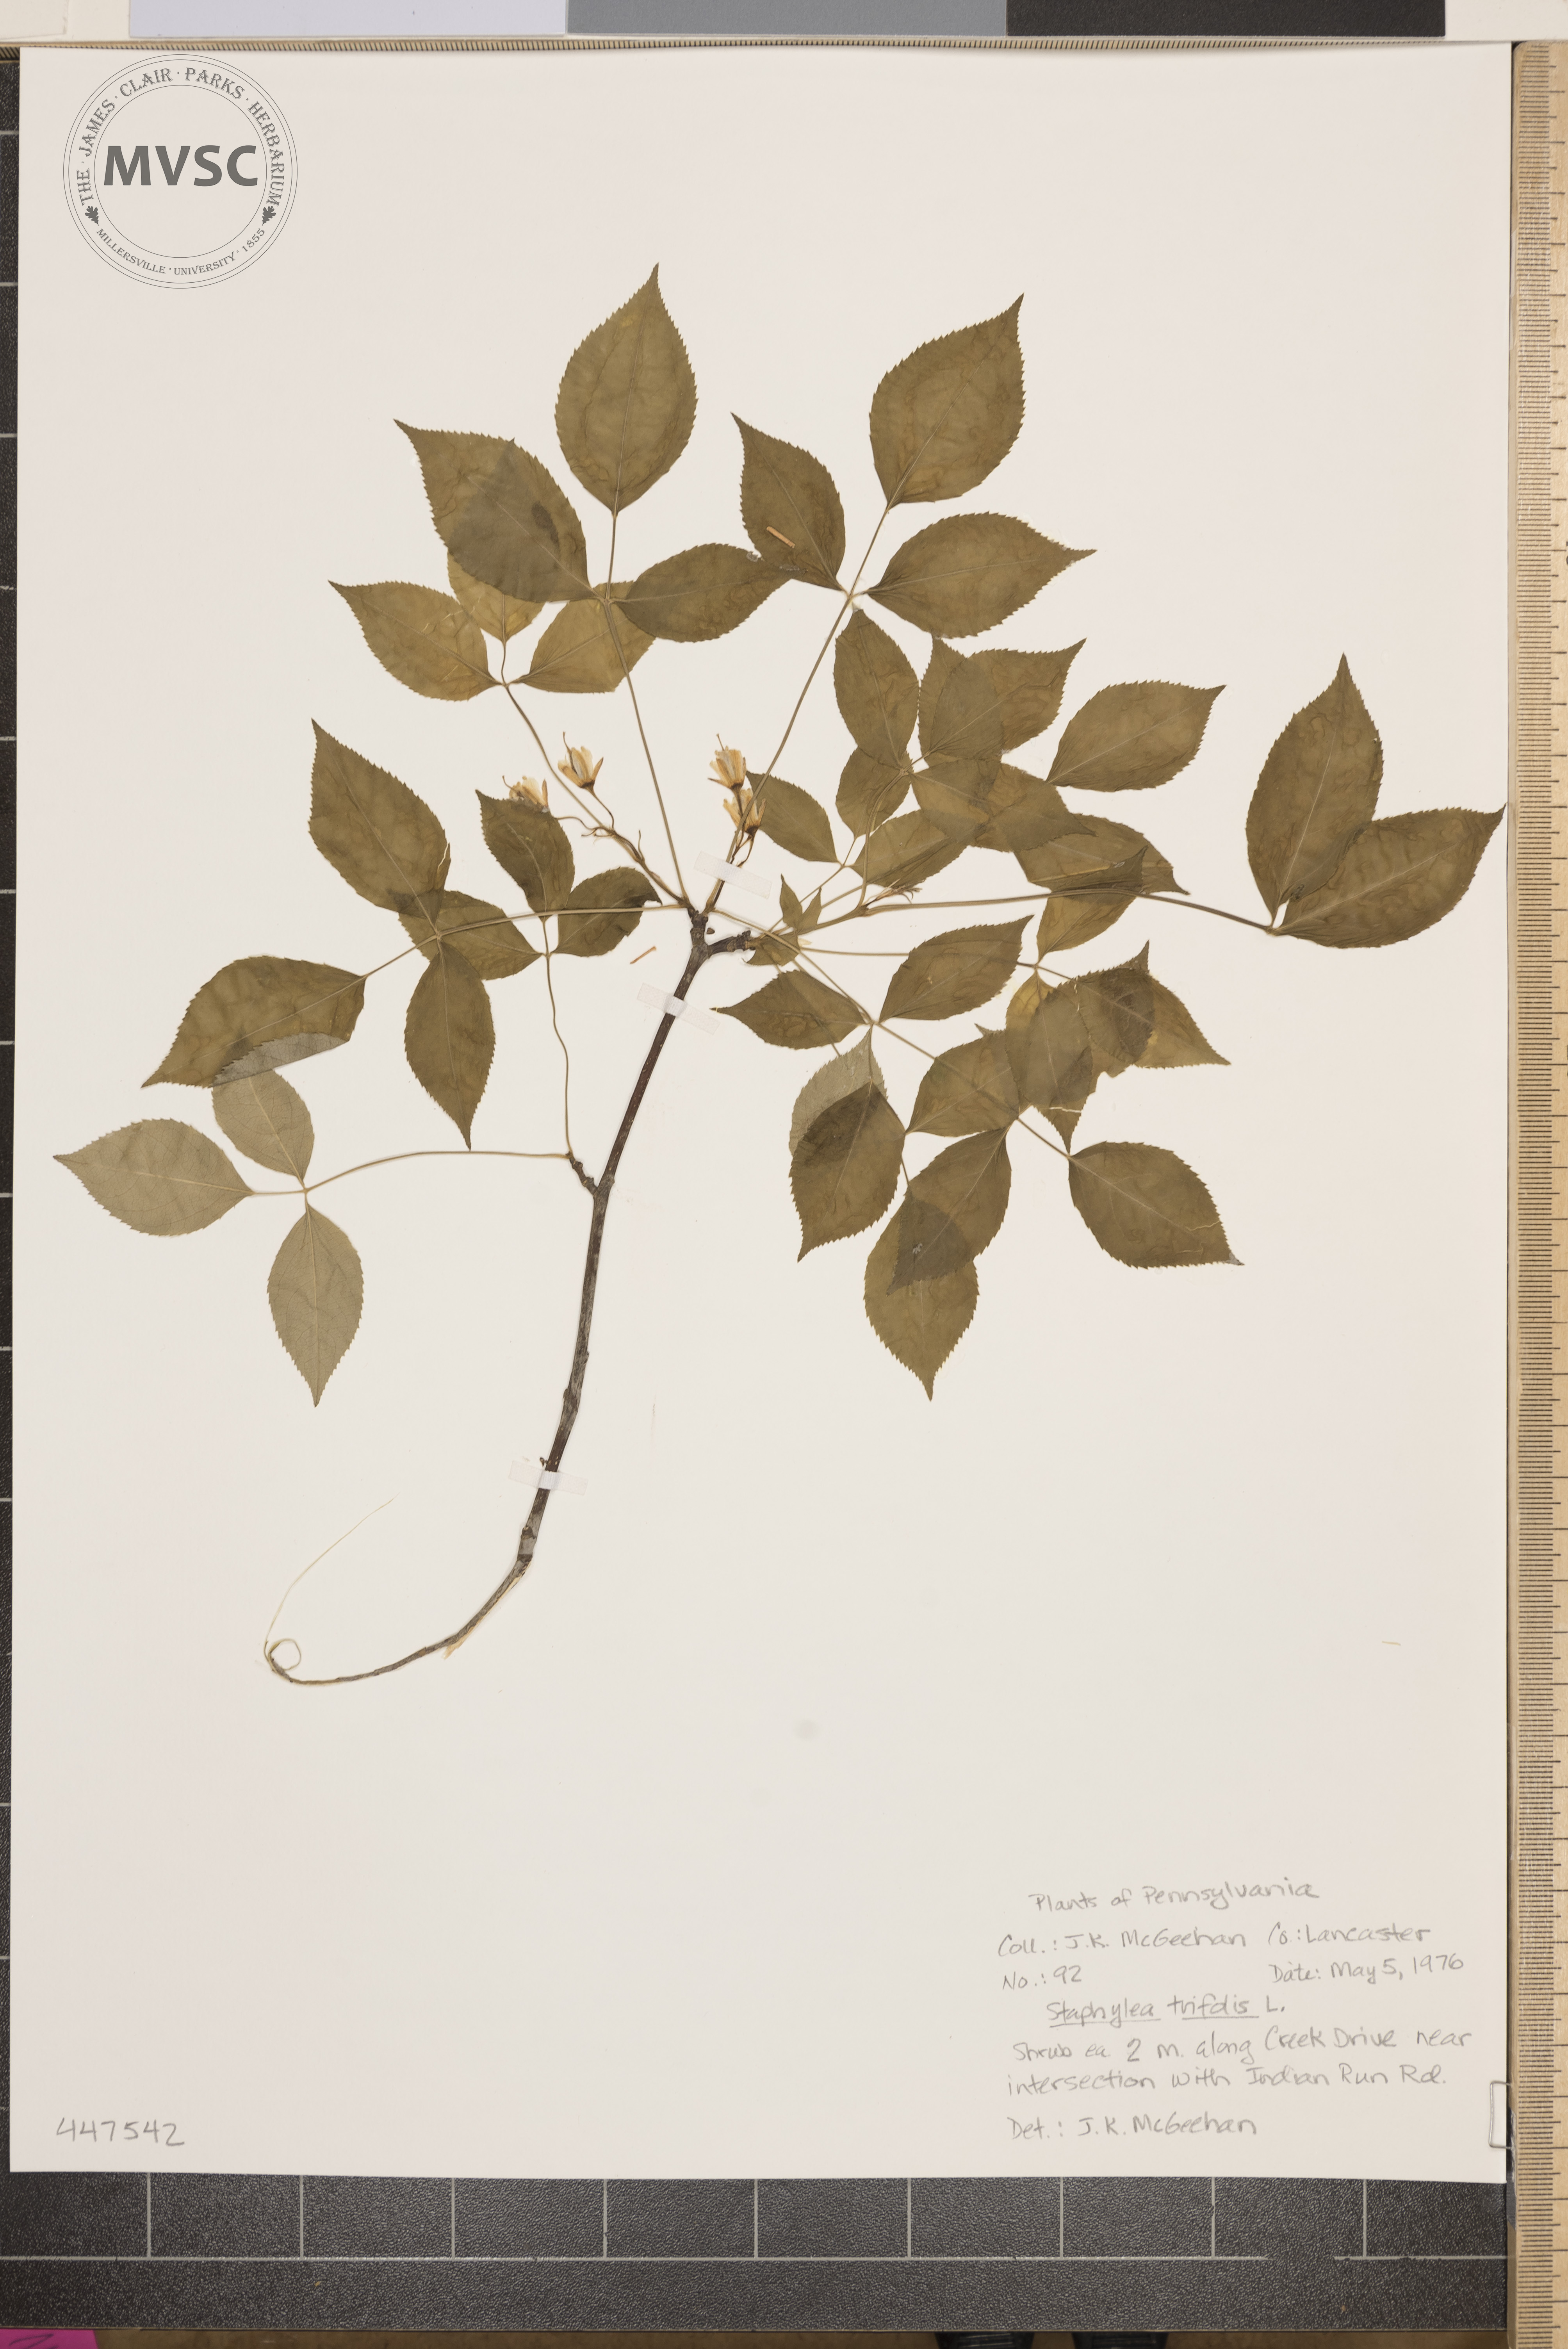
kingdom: Plantae
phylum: Tracheophyta
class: Magnoliopsida
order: Crossosomatales
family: Staphyleaceae
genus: Staphylea
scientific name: Staphylea trifolia
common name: American bladdernut
